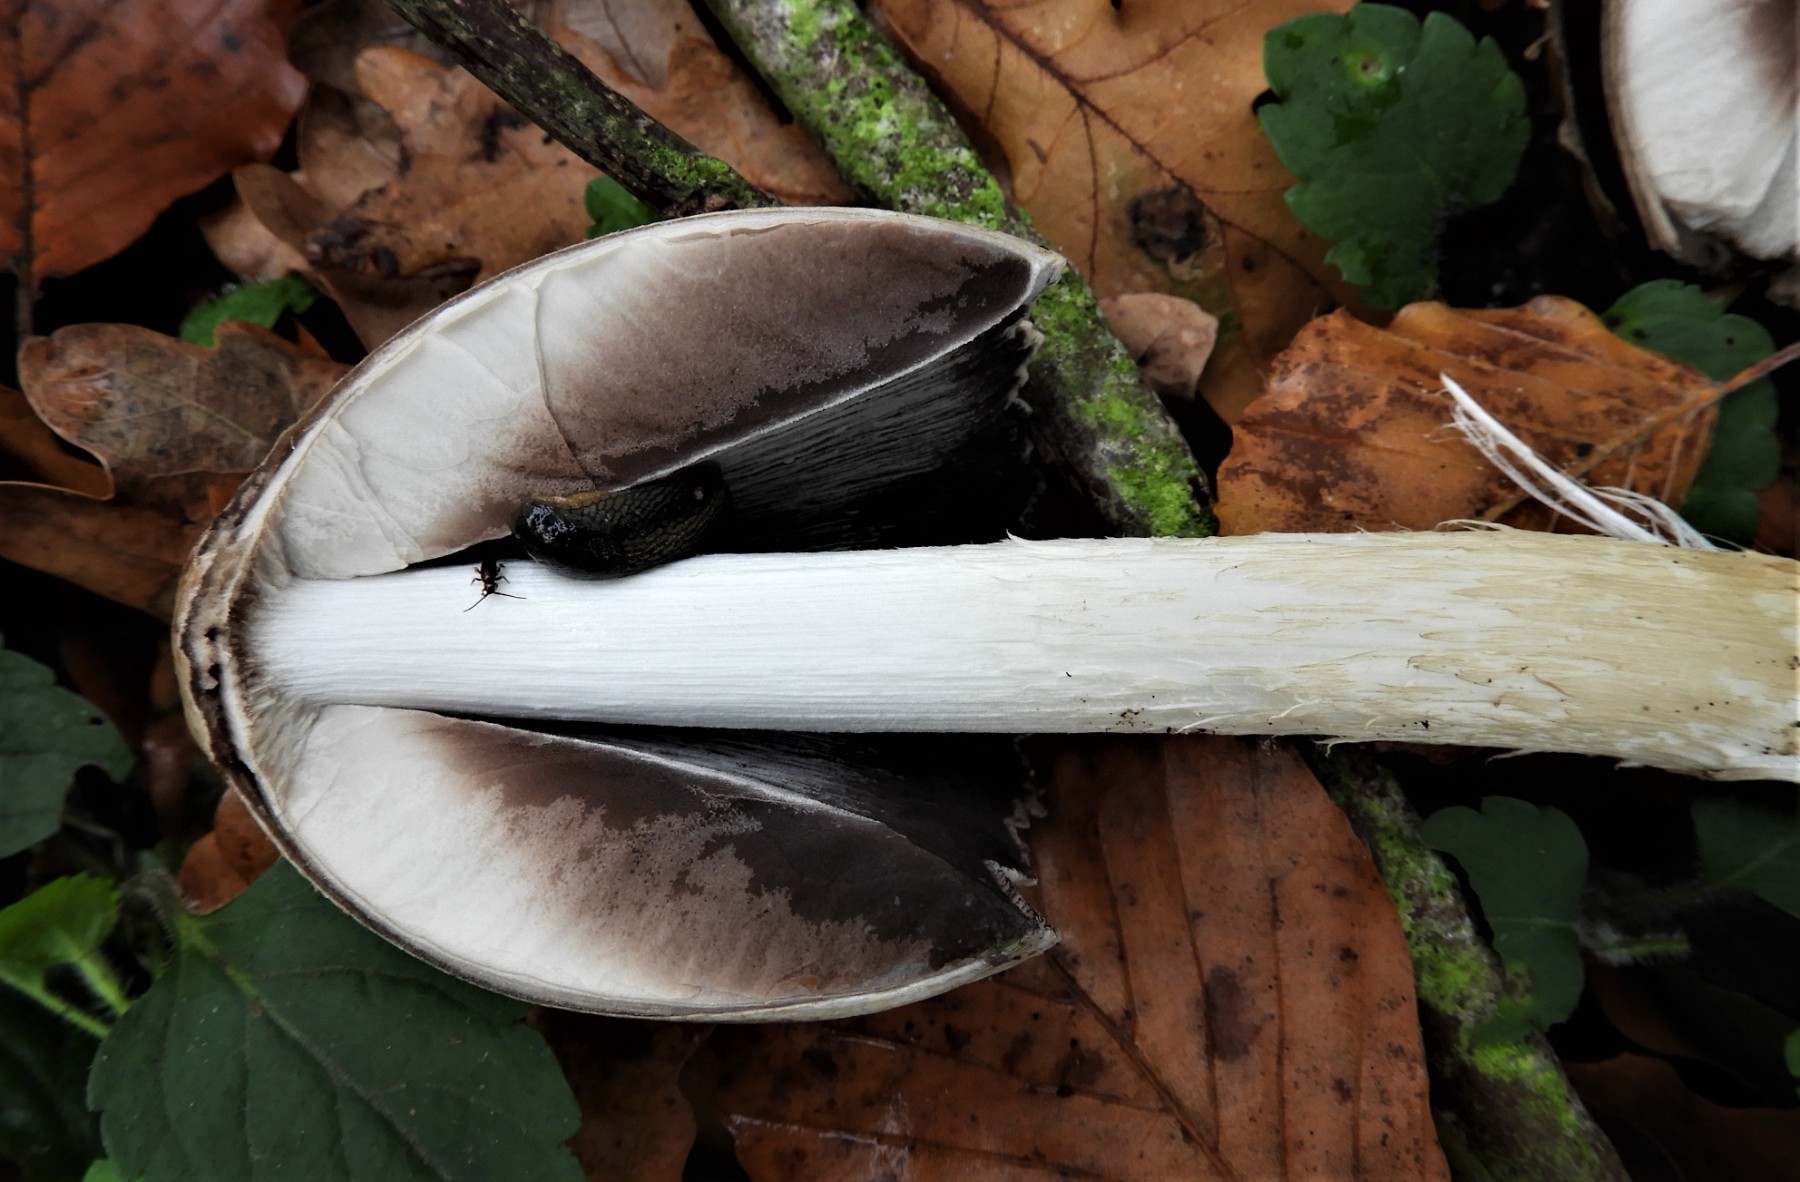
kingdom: Fungi
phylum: Basidiomycota
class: Agaricomycetes
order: Agaricales
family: Psathyrellaceae
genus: Coprinopsis
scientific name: Coprinopsis atramentaria
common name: almindelig blækhat
